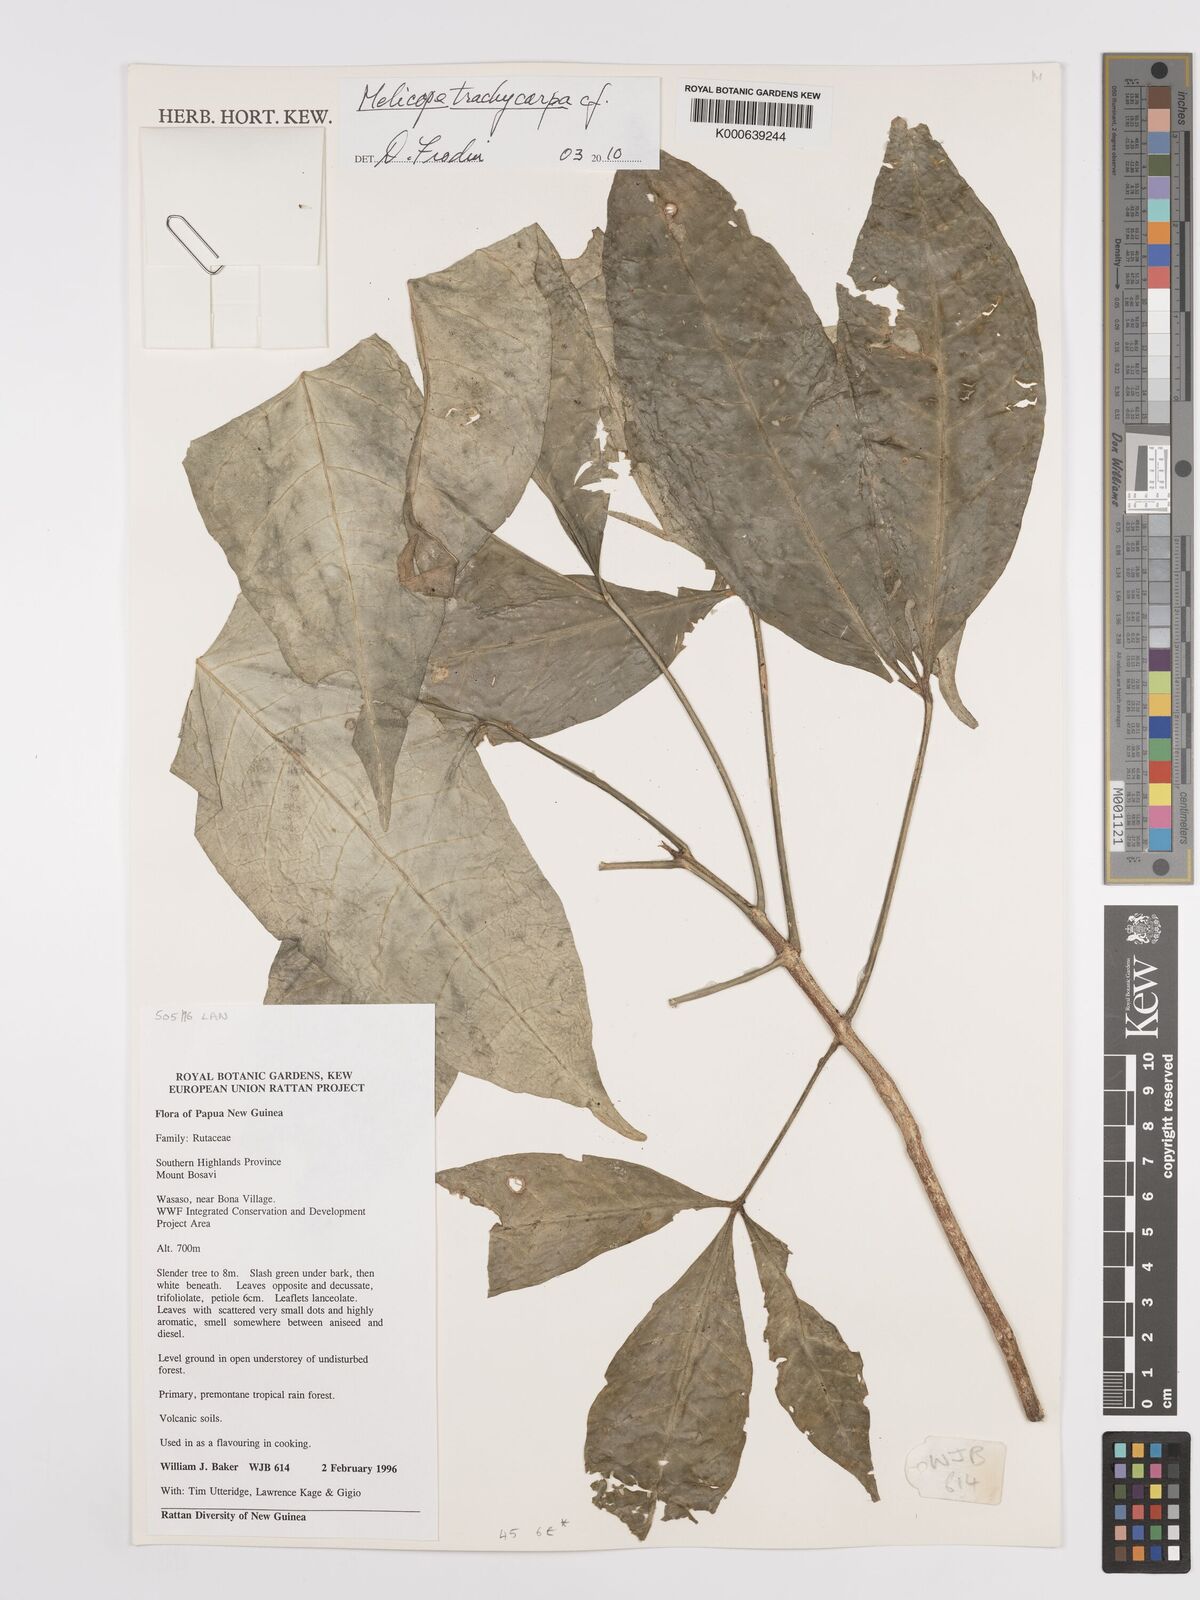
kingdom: Plantae
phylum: Tracheophyta
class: Magnoliopsida
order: Sapindales
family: Rutaceae
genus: Melicope
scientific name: Melicope trachycarpa
